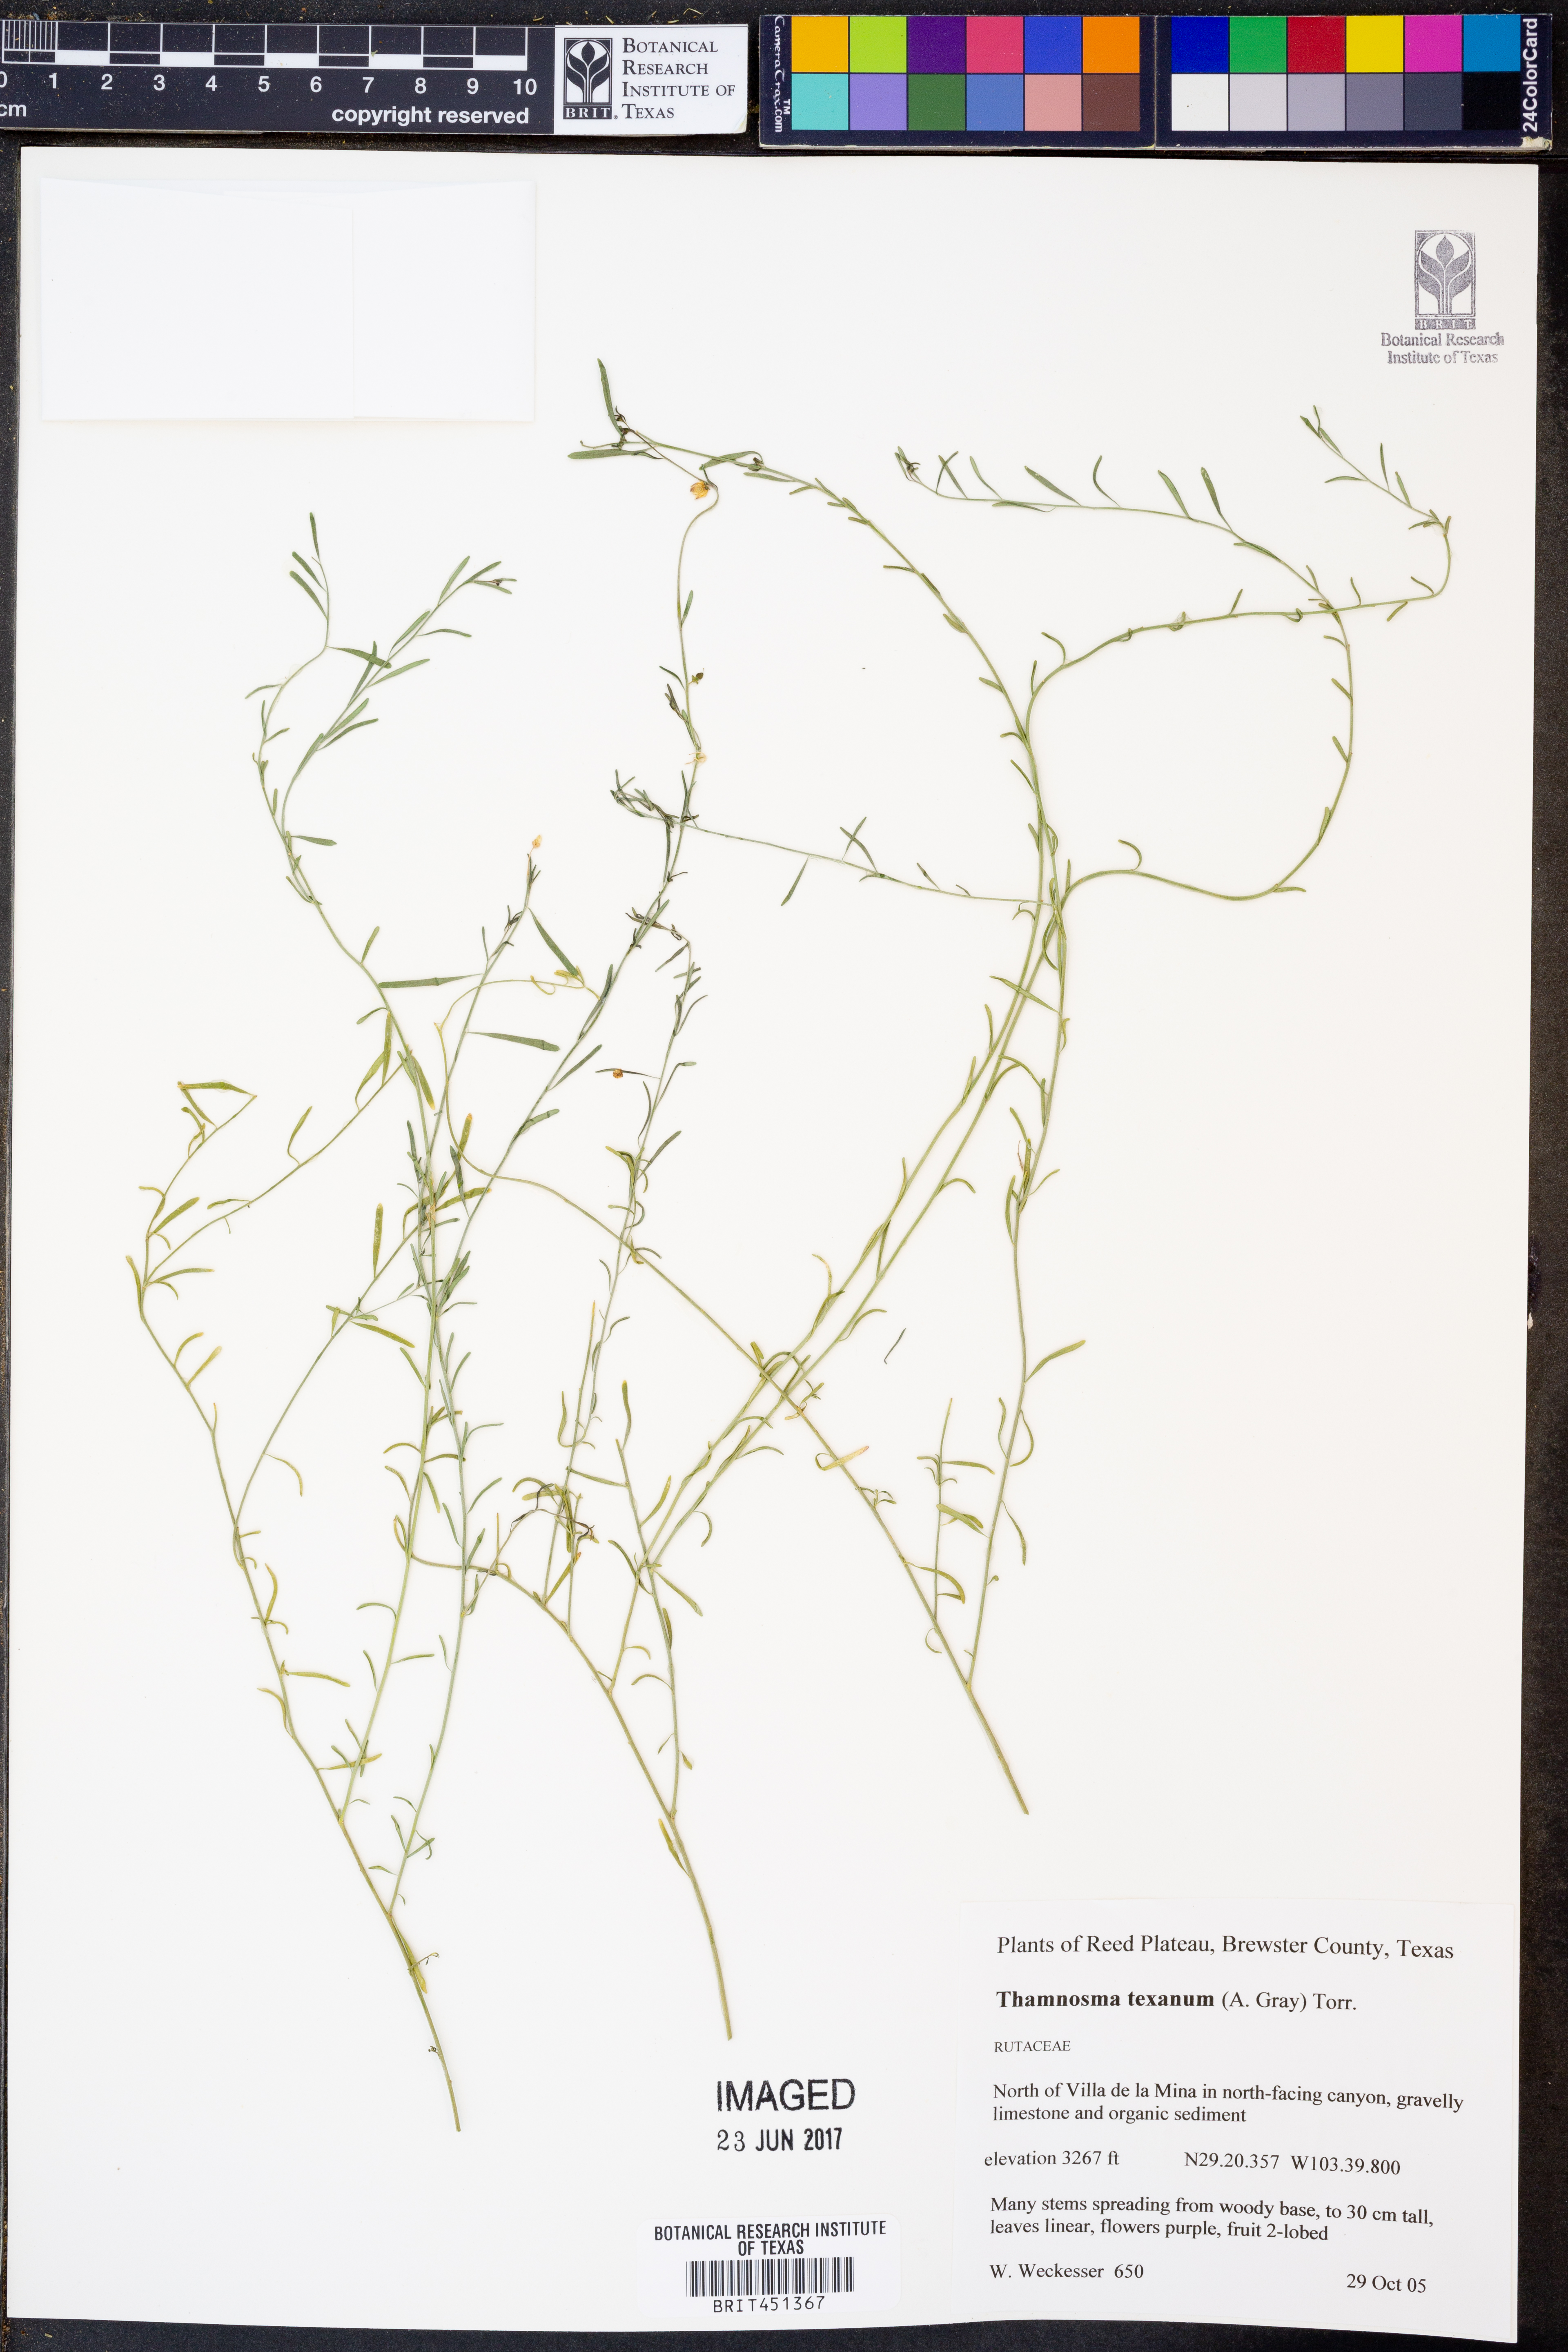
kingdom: Plantae
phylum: Tracheophyta
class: Magnoliopsida
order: Sapindales
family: Rutaceae
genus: Thamnosma
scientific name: Thamnosma texana
